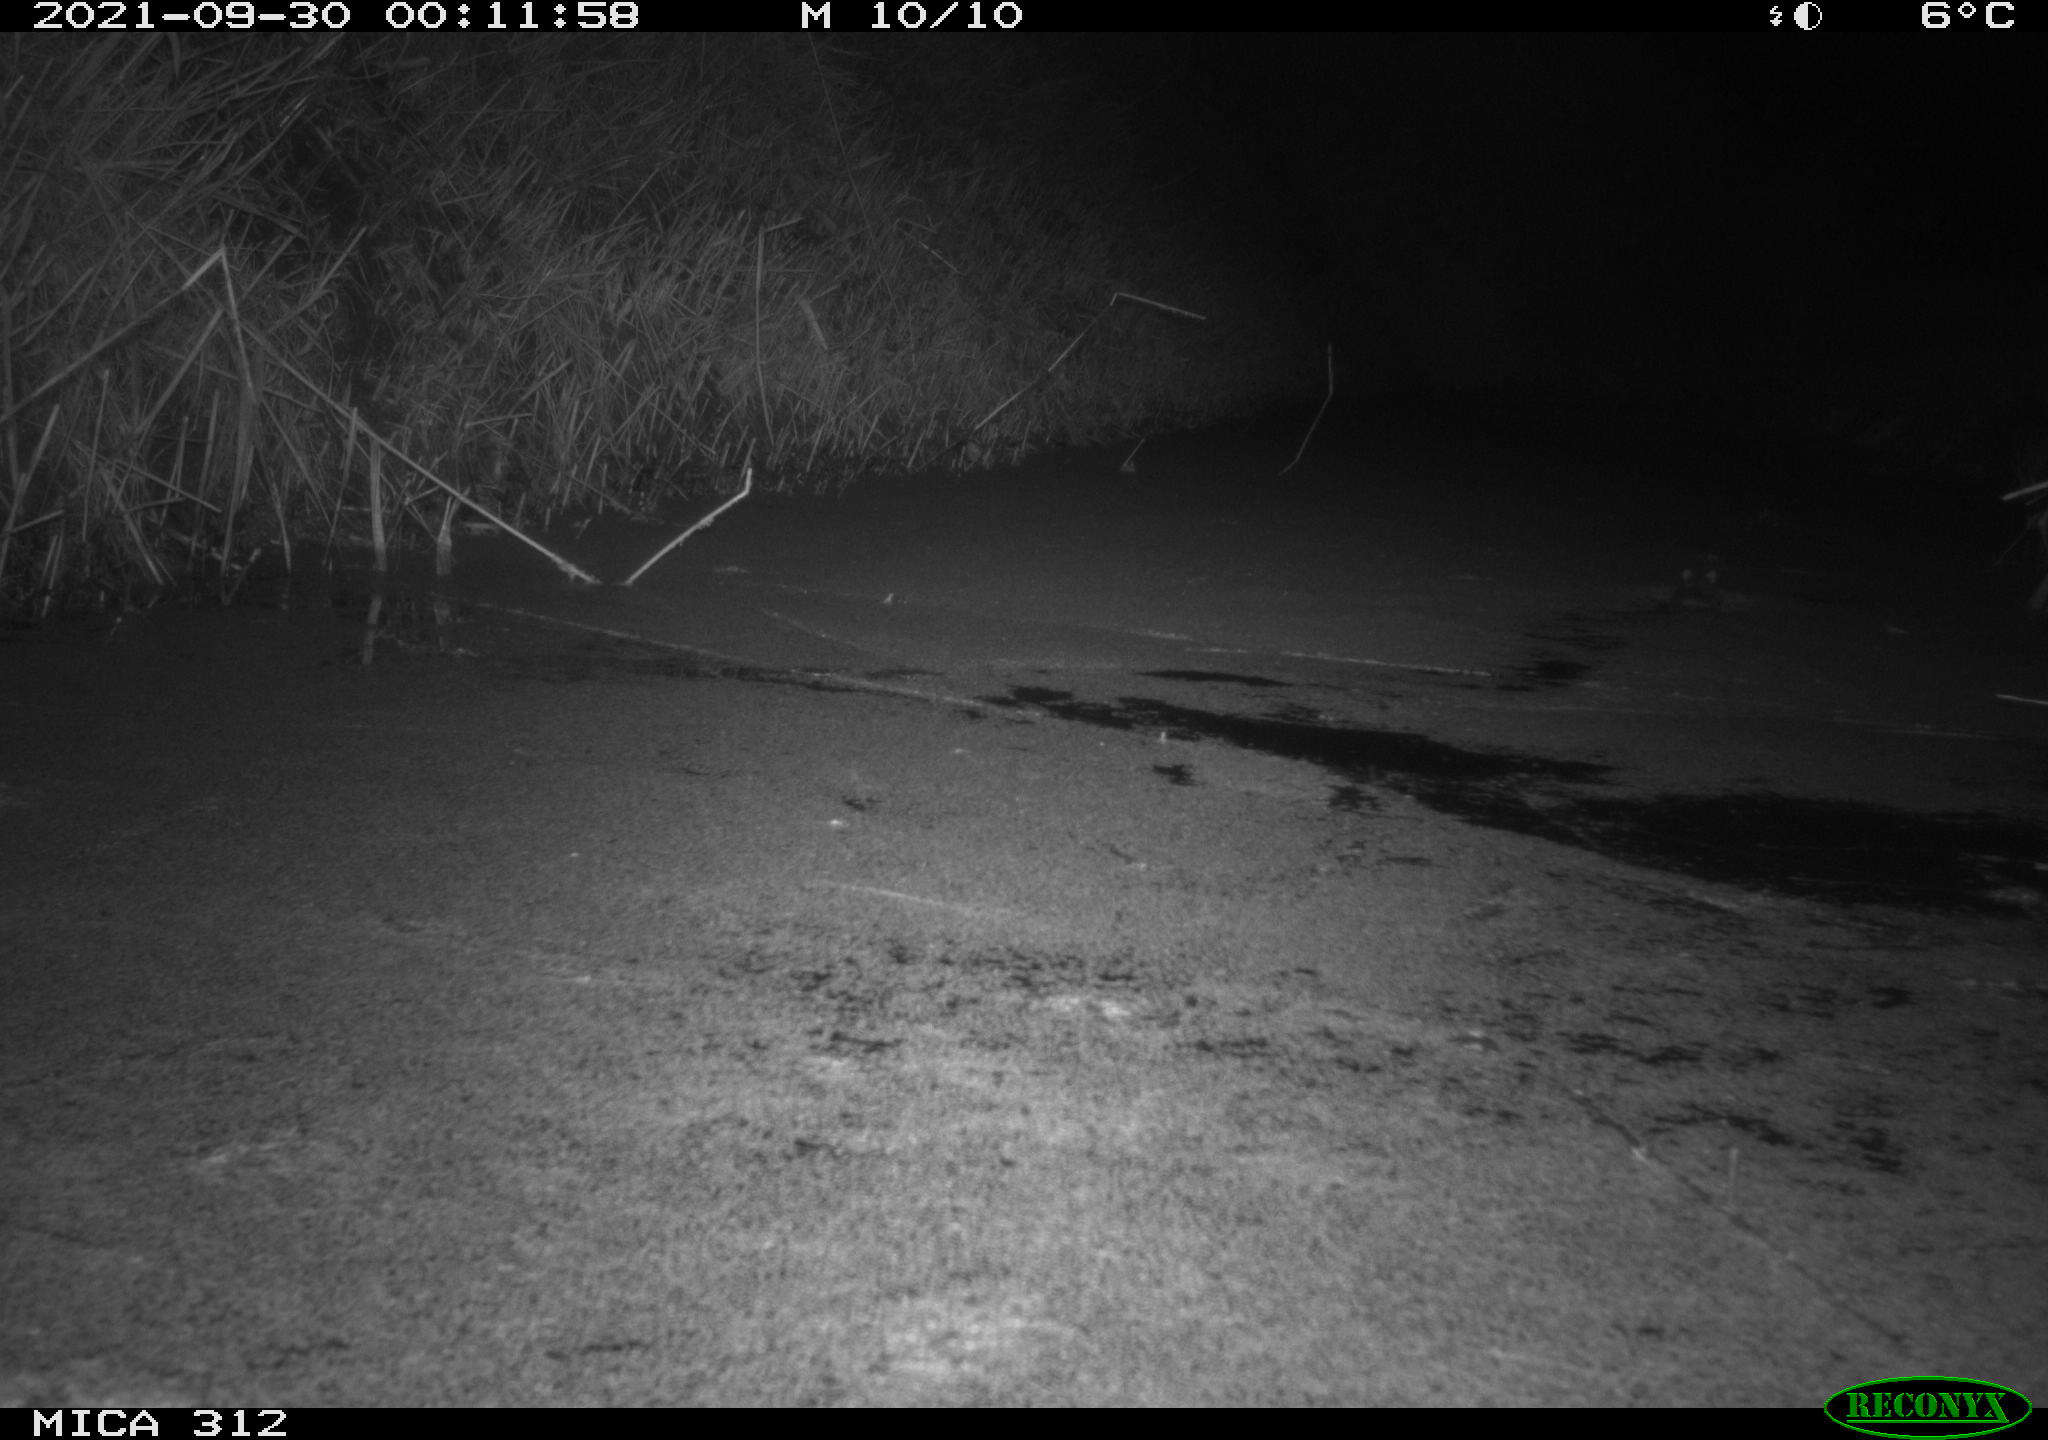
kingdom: Animalia
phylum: Chordata
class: Mammalia
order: Rodentia
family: Muridae
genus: Rattus
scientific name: Rattus norvegicus
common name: Brown rat
